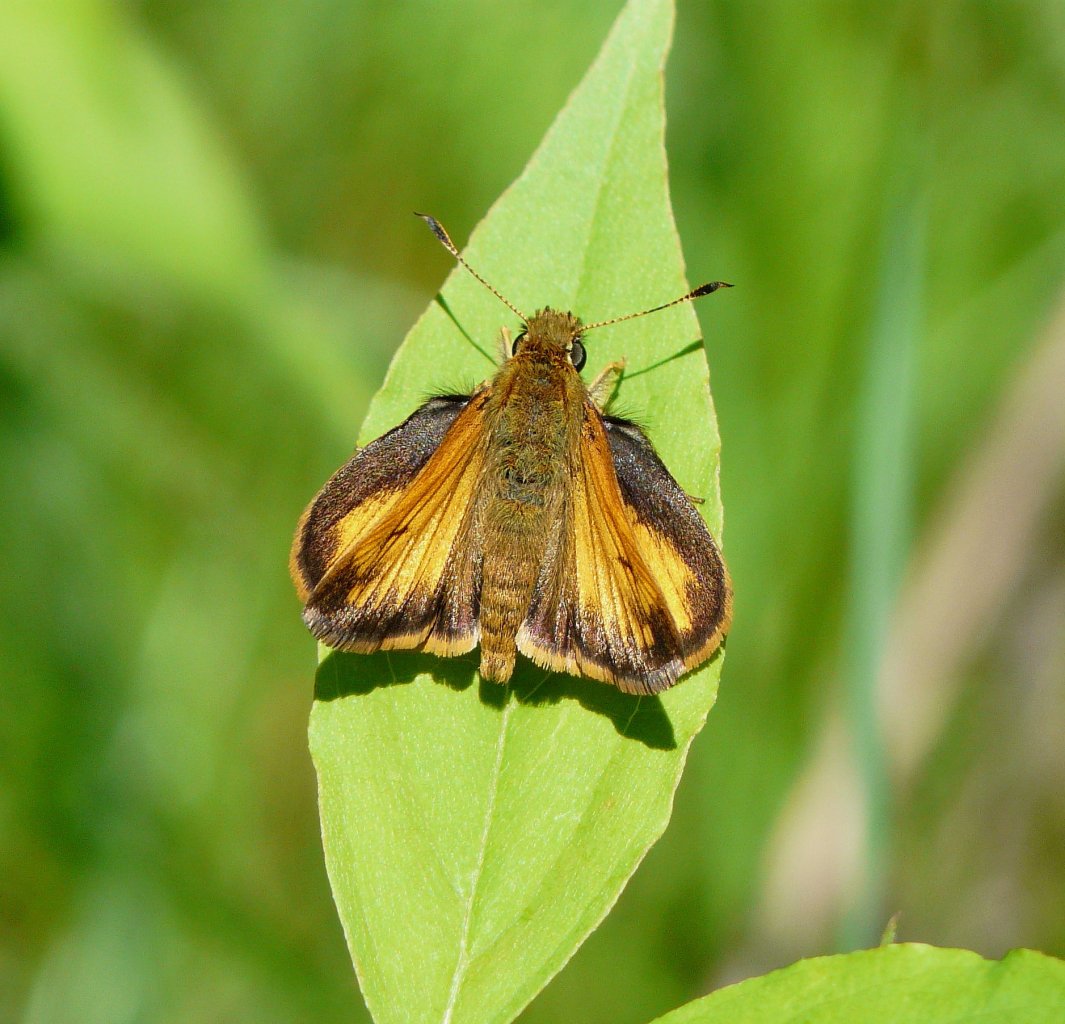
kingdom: Animalia
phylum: Arthropoda
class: Insecta
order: Lepidoptera
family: Hesperiidae
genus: Lon
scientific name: Lon hobomok
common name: Hobomok Skipper
